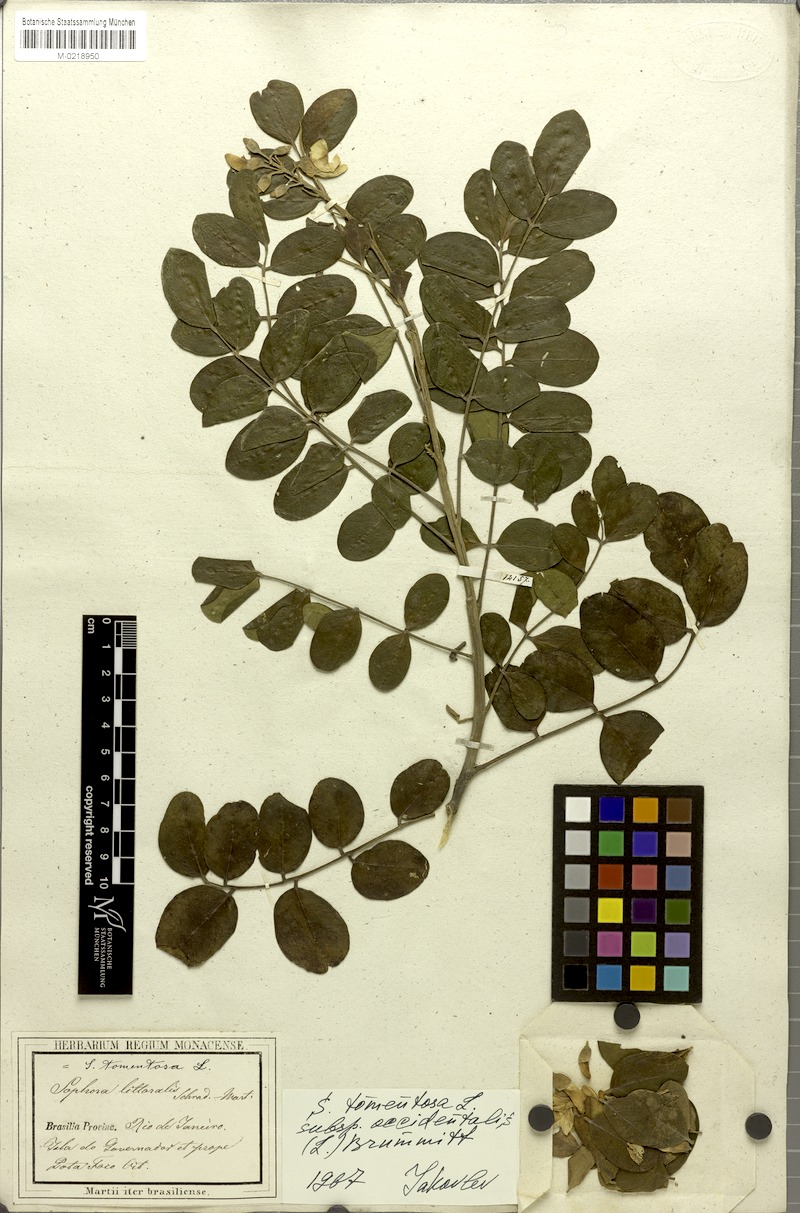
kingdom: Plantae
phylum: Tracheophyta
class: Magnoliopsida
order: Fabales
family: Fabaceae
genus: Sophora
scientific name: Sophora tomentosa
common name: Yellow necklacepod
